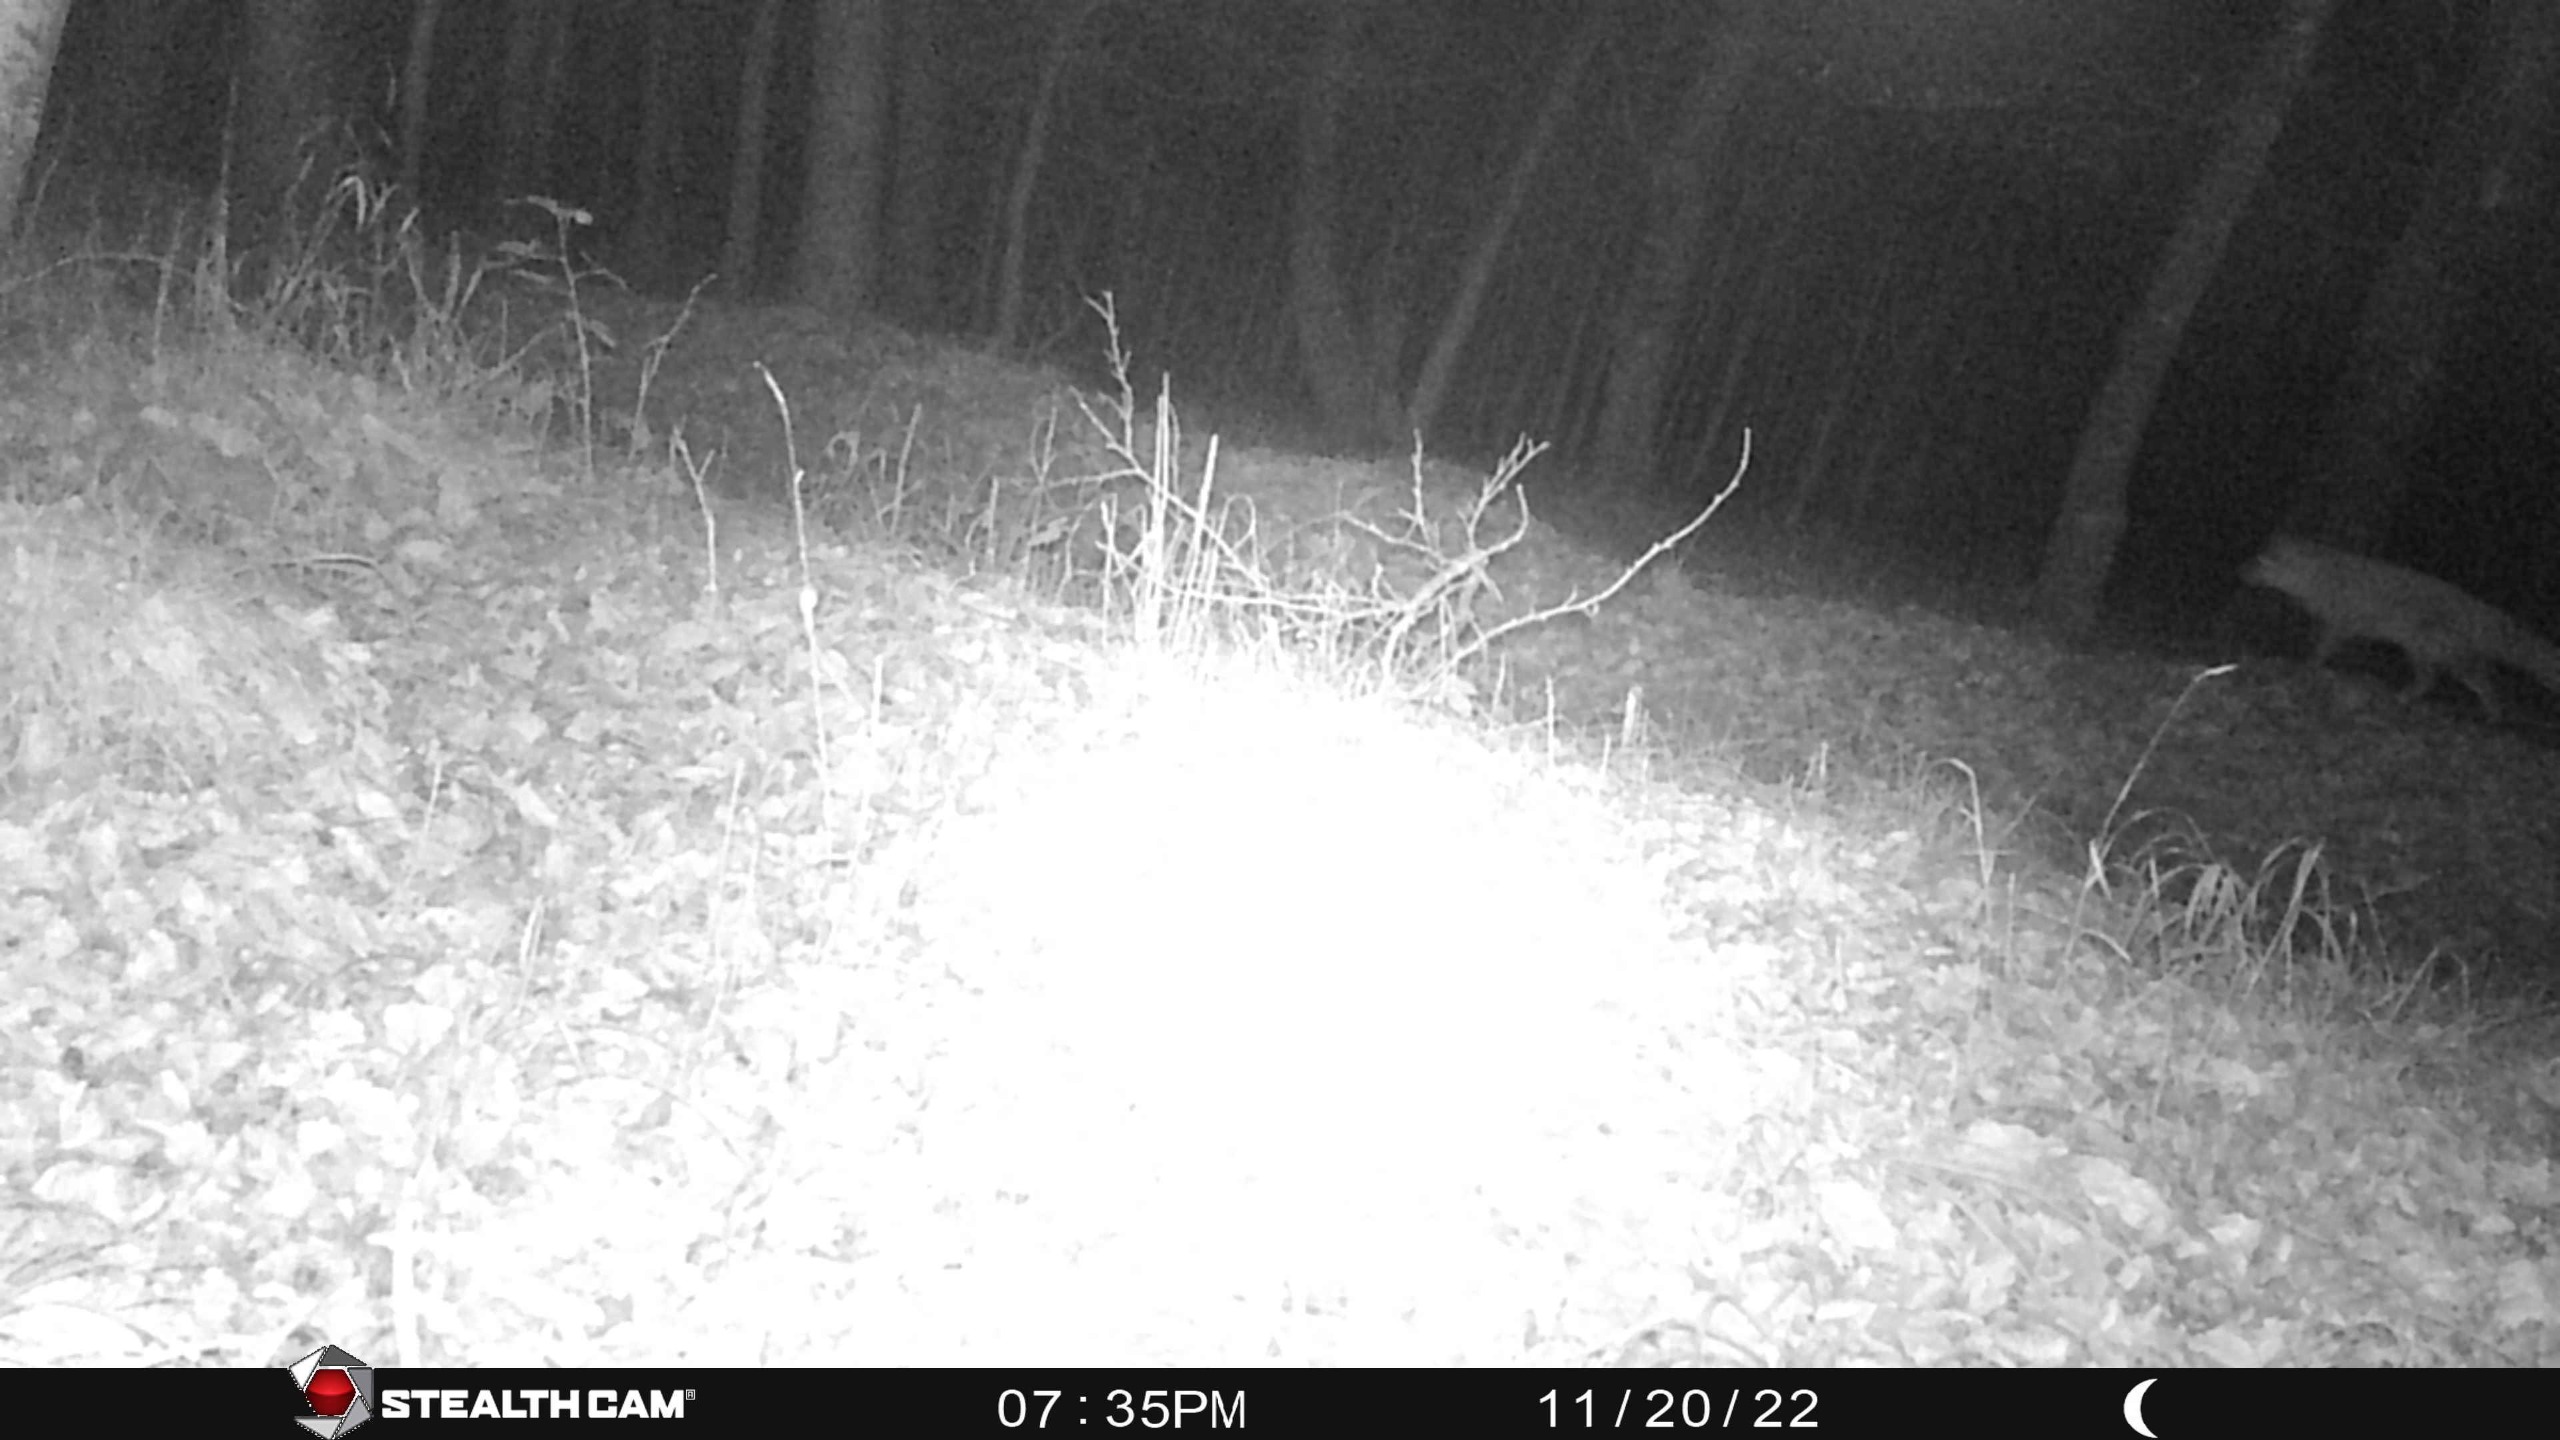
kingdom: Animalia
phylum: Chordata
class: Mammalia
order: Carnivora
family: Canidae
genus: Vulpes
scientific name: Vulpes vulpes
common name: Ræv
